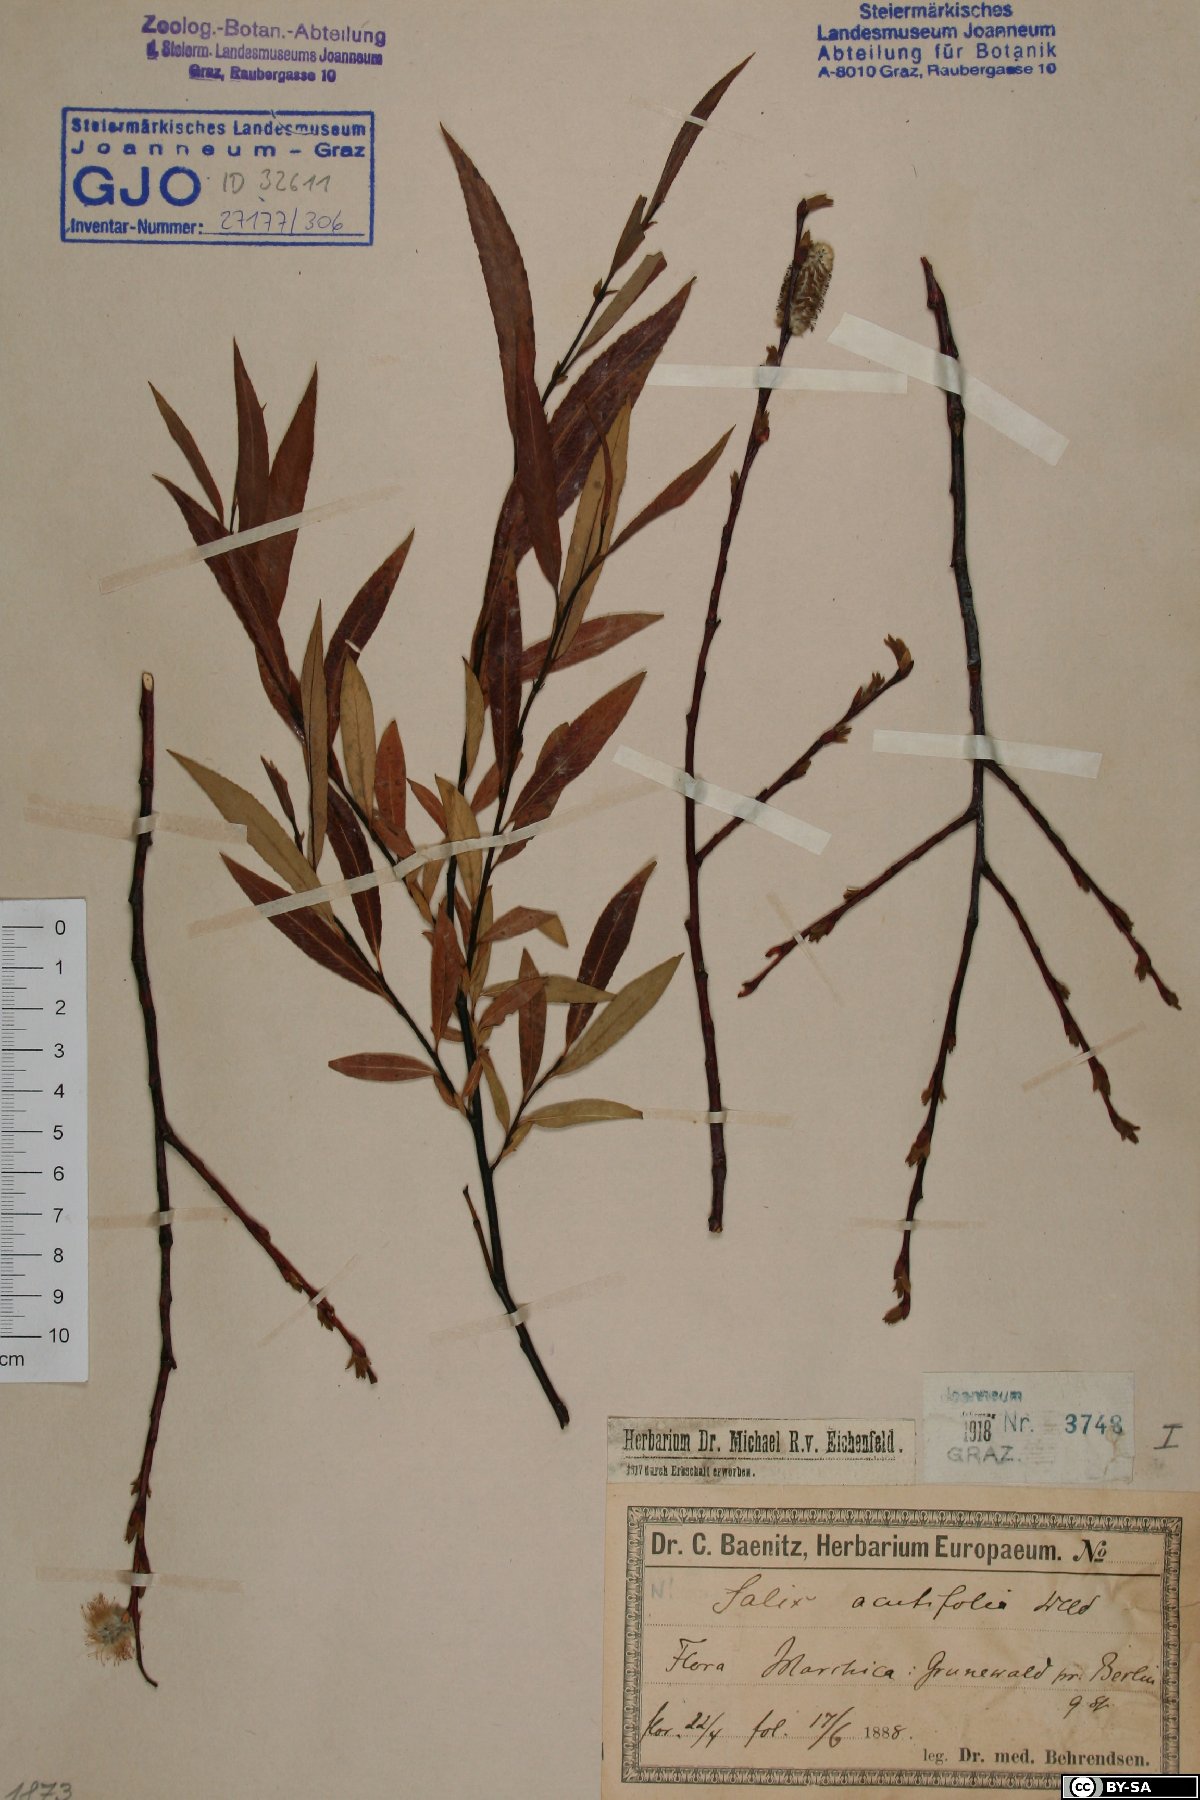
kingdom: Plantae
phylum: Tracheophyta
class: Magnoliopsida
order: Malpighiales
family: Salicaceae
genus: Salix
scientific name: Salix acutifolia
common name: Siberian violet-willow
